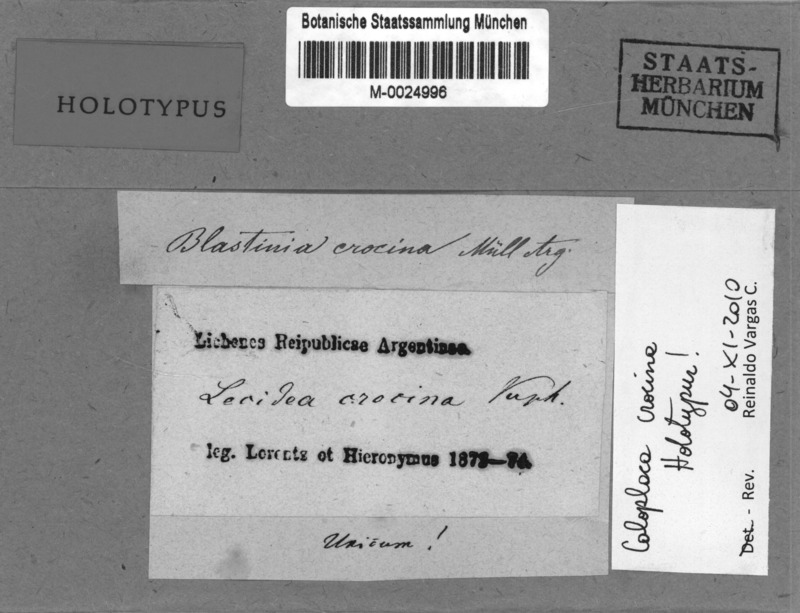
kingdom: Fungi
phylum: Ascomycota
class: Lecanoromycetes
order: Teloschistales
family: Teloschistaceae
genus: Huneckia
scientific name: Huneckia crocina
